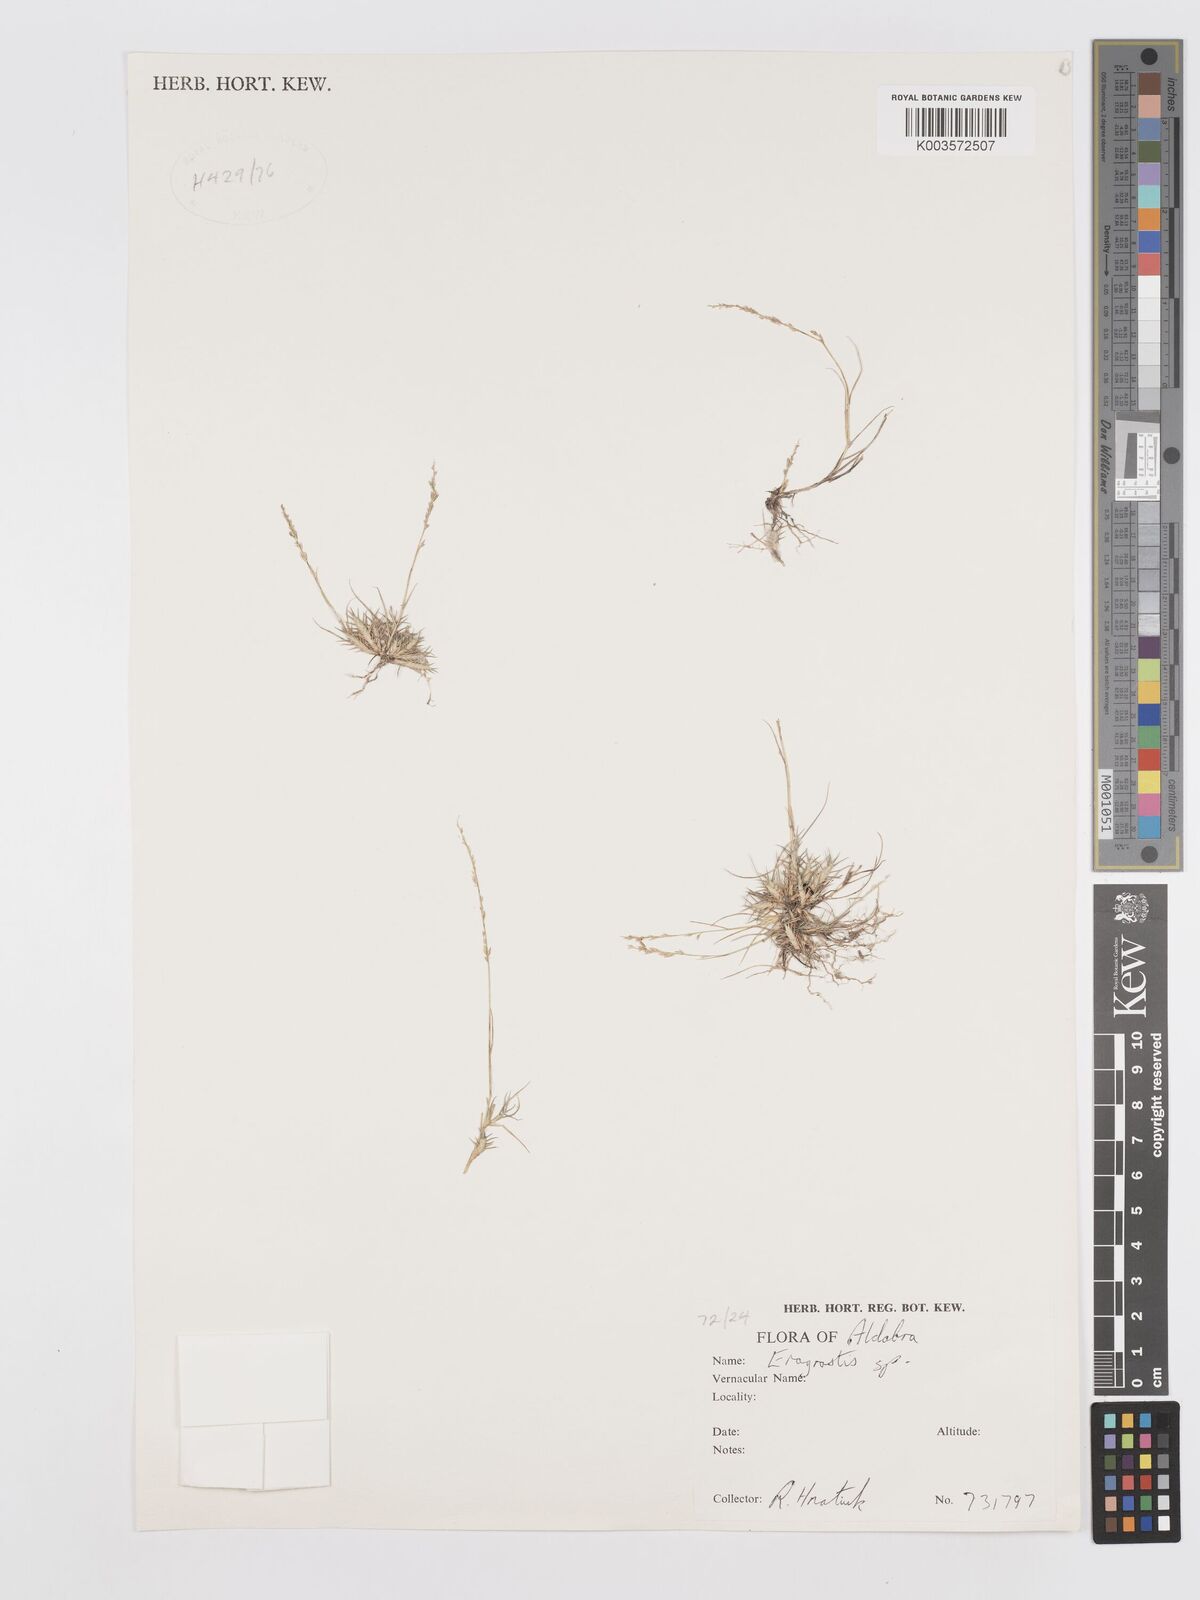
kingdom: Plantae
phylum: Tracheophyta
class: Liliopsida
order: Poales
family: Poaceae
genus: Eragrostis
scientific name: Eragrostis decumbens
